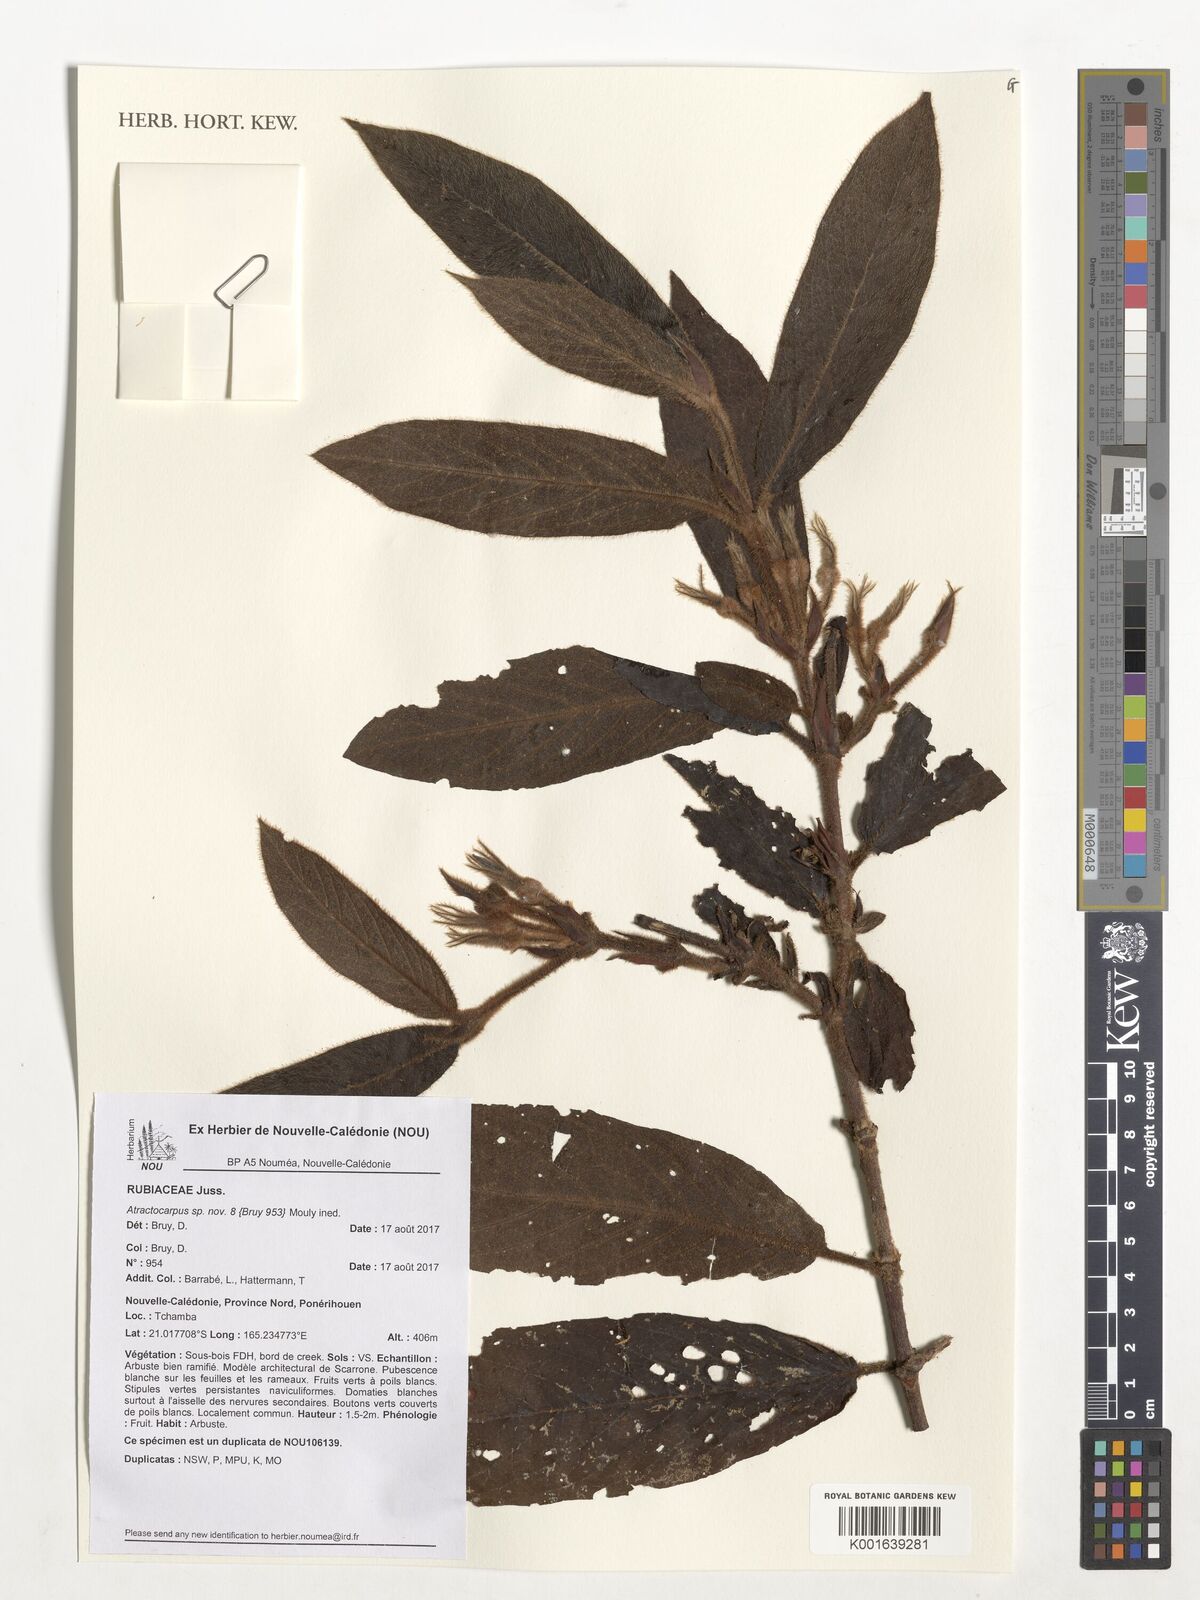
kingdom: Plantae
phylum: Tracheophyta
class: Magnoliopsida
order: Gentianales
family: Rubiaceae
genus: Atractocarpus
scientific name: Atractocarpus
